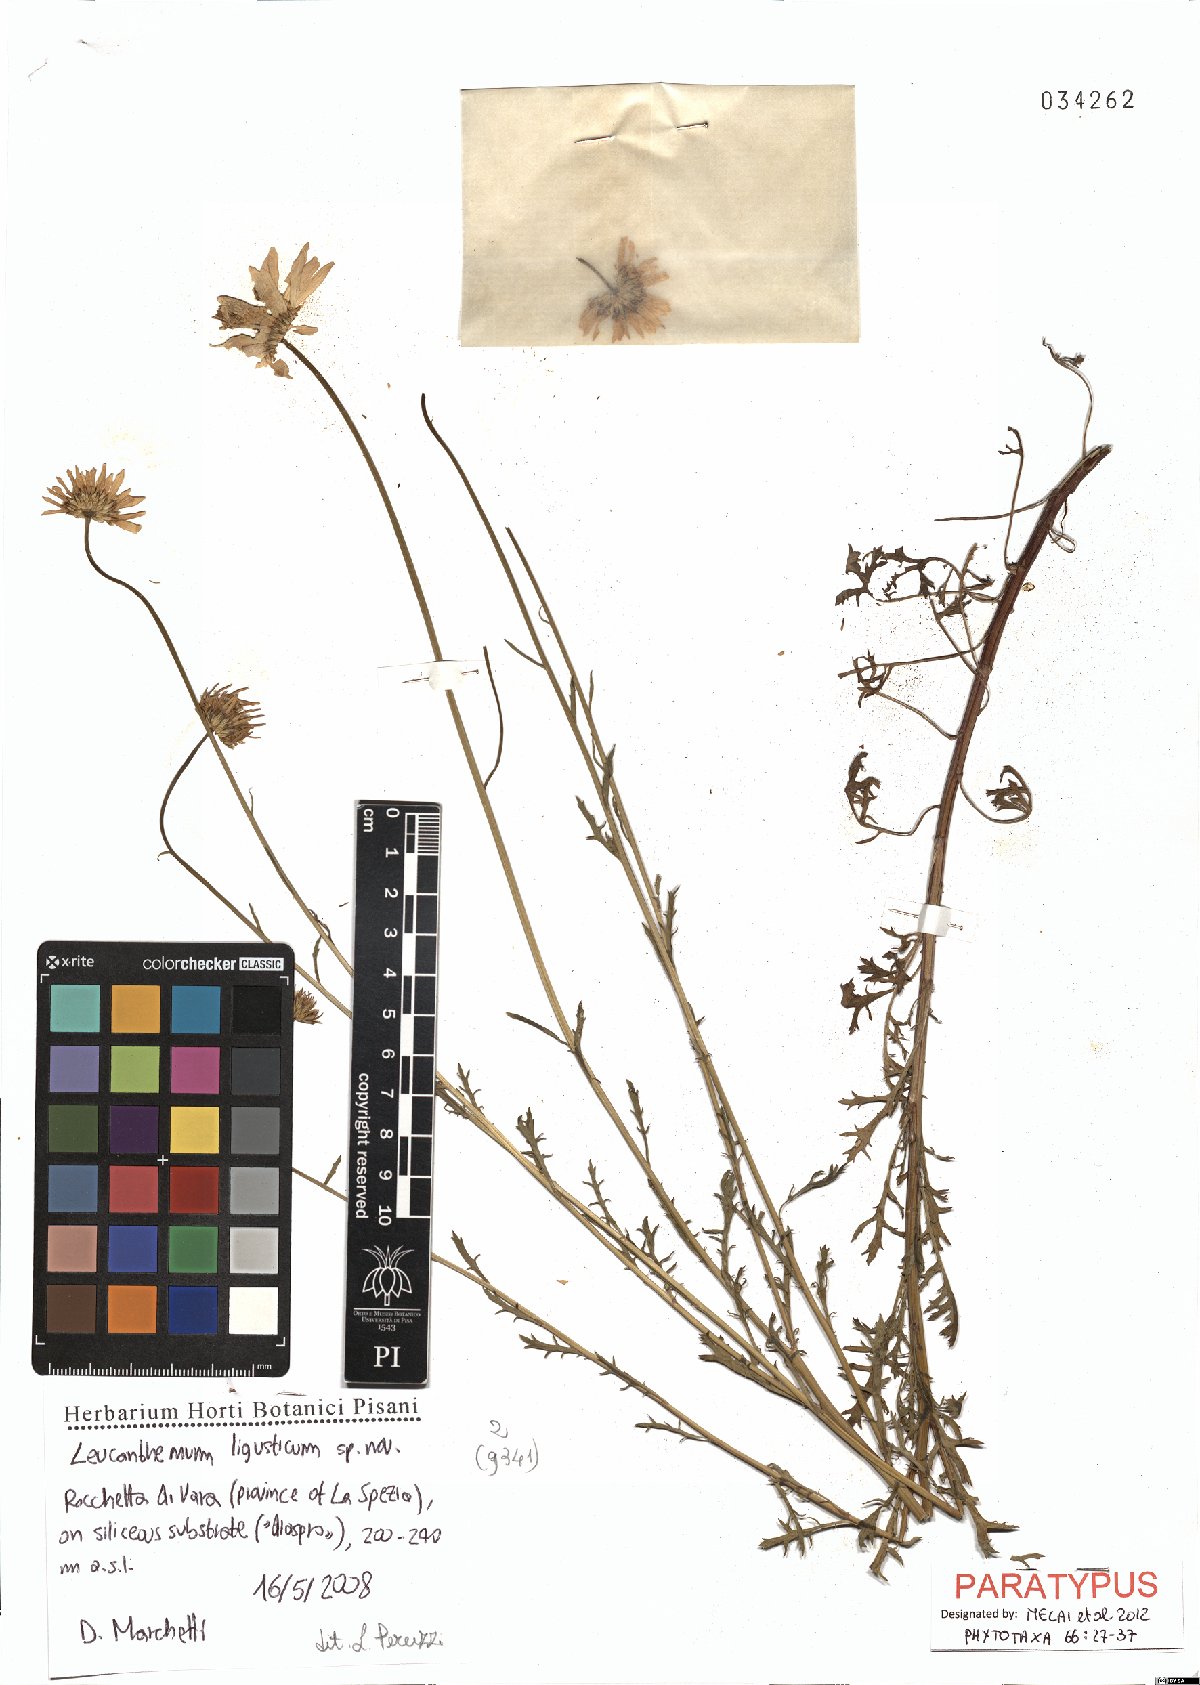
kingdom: Plantae
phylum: Tracheophyta
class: Magnoliopsida
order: Asterales
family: Asteraceae
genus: Leucanthemum
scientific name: Leucanthemum ligusticum
